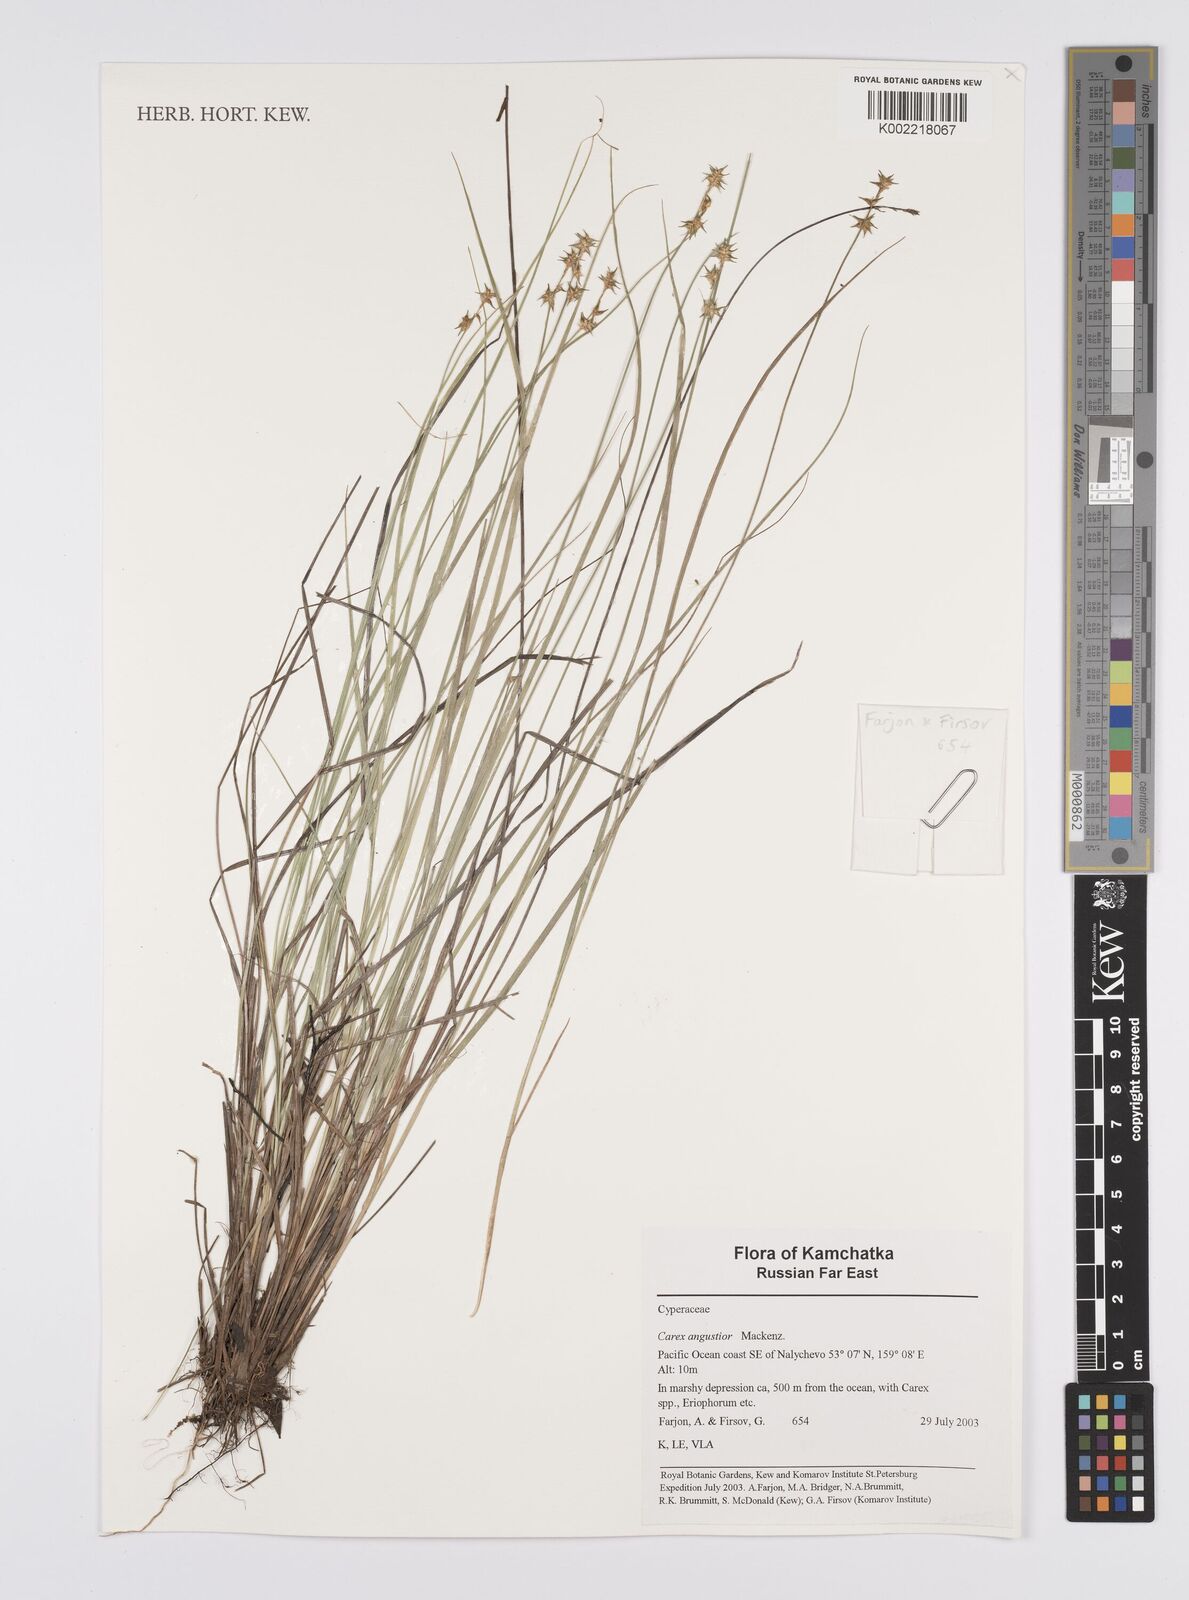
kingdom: Plantae
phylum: Tracheophyta
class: Liliopsida
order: Poales
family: Cyperaceae
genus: Carex
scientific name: Carex echinata
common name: Star sedge
